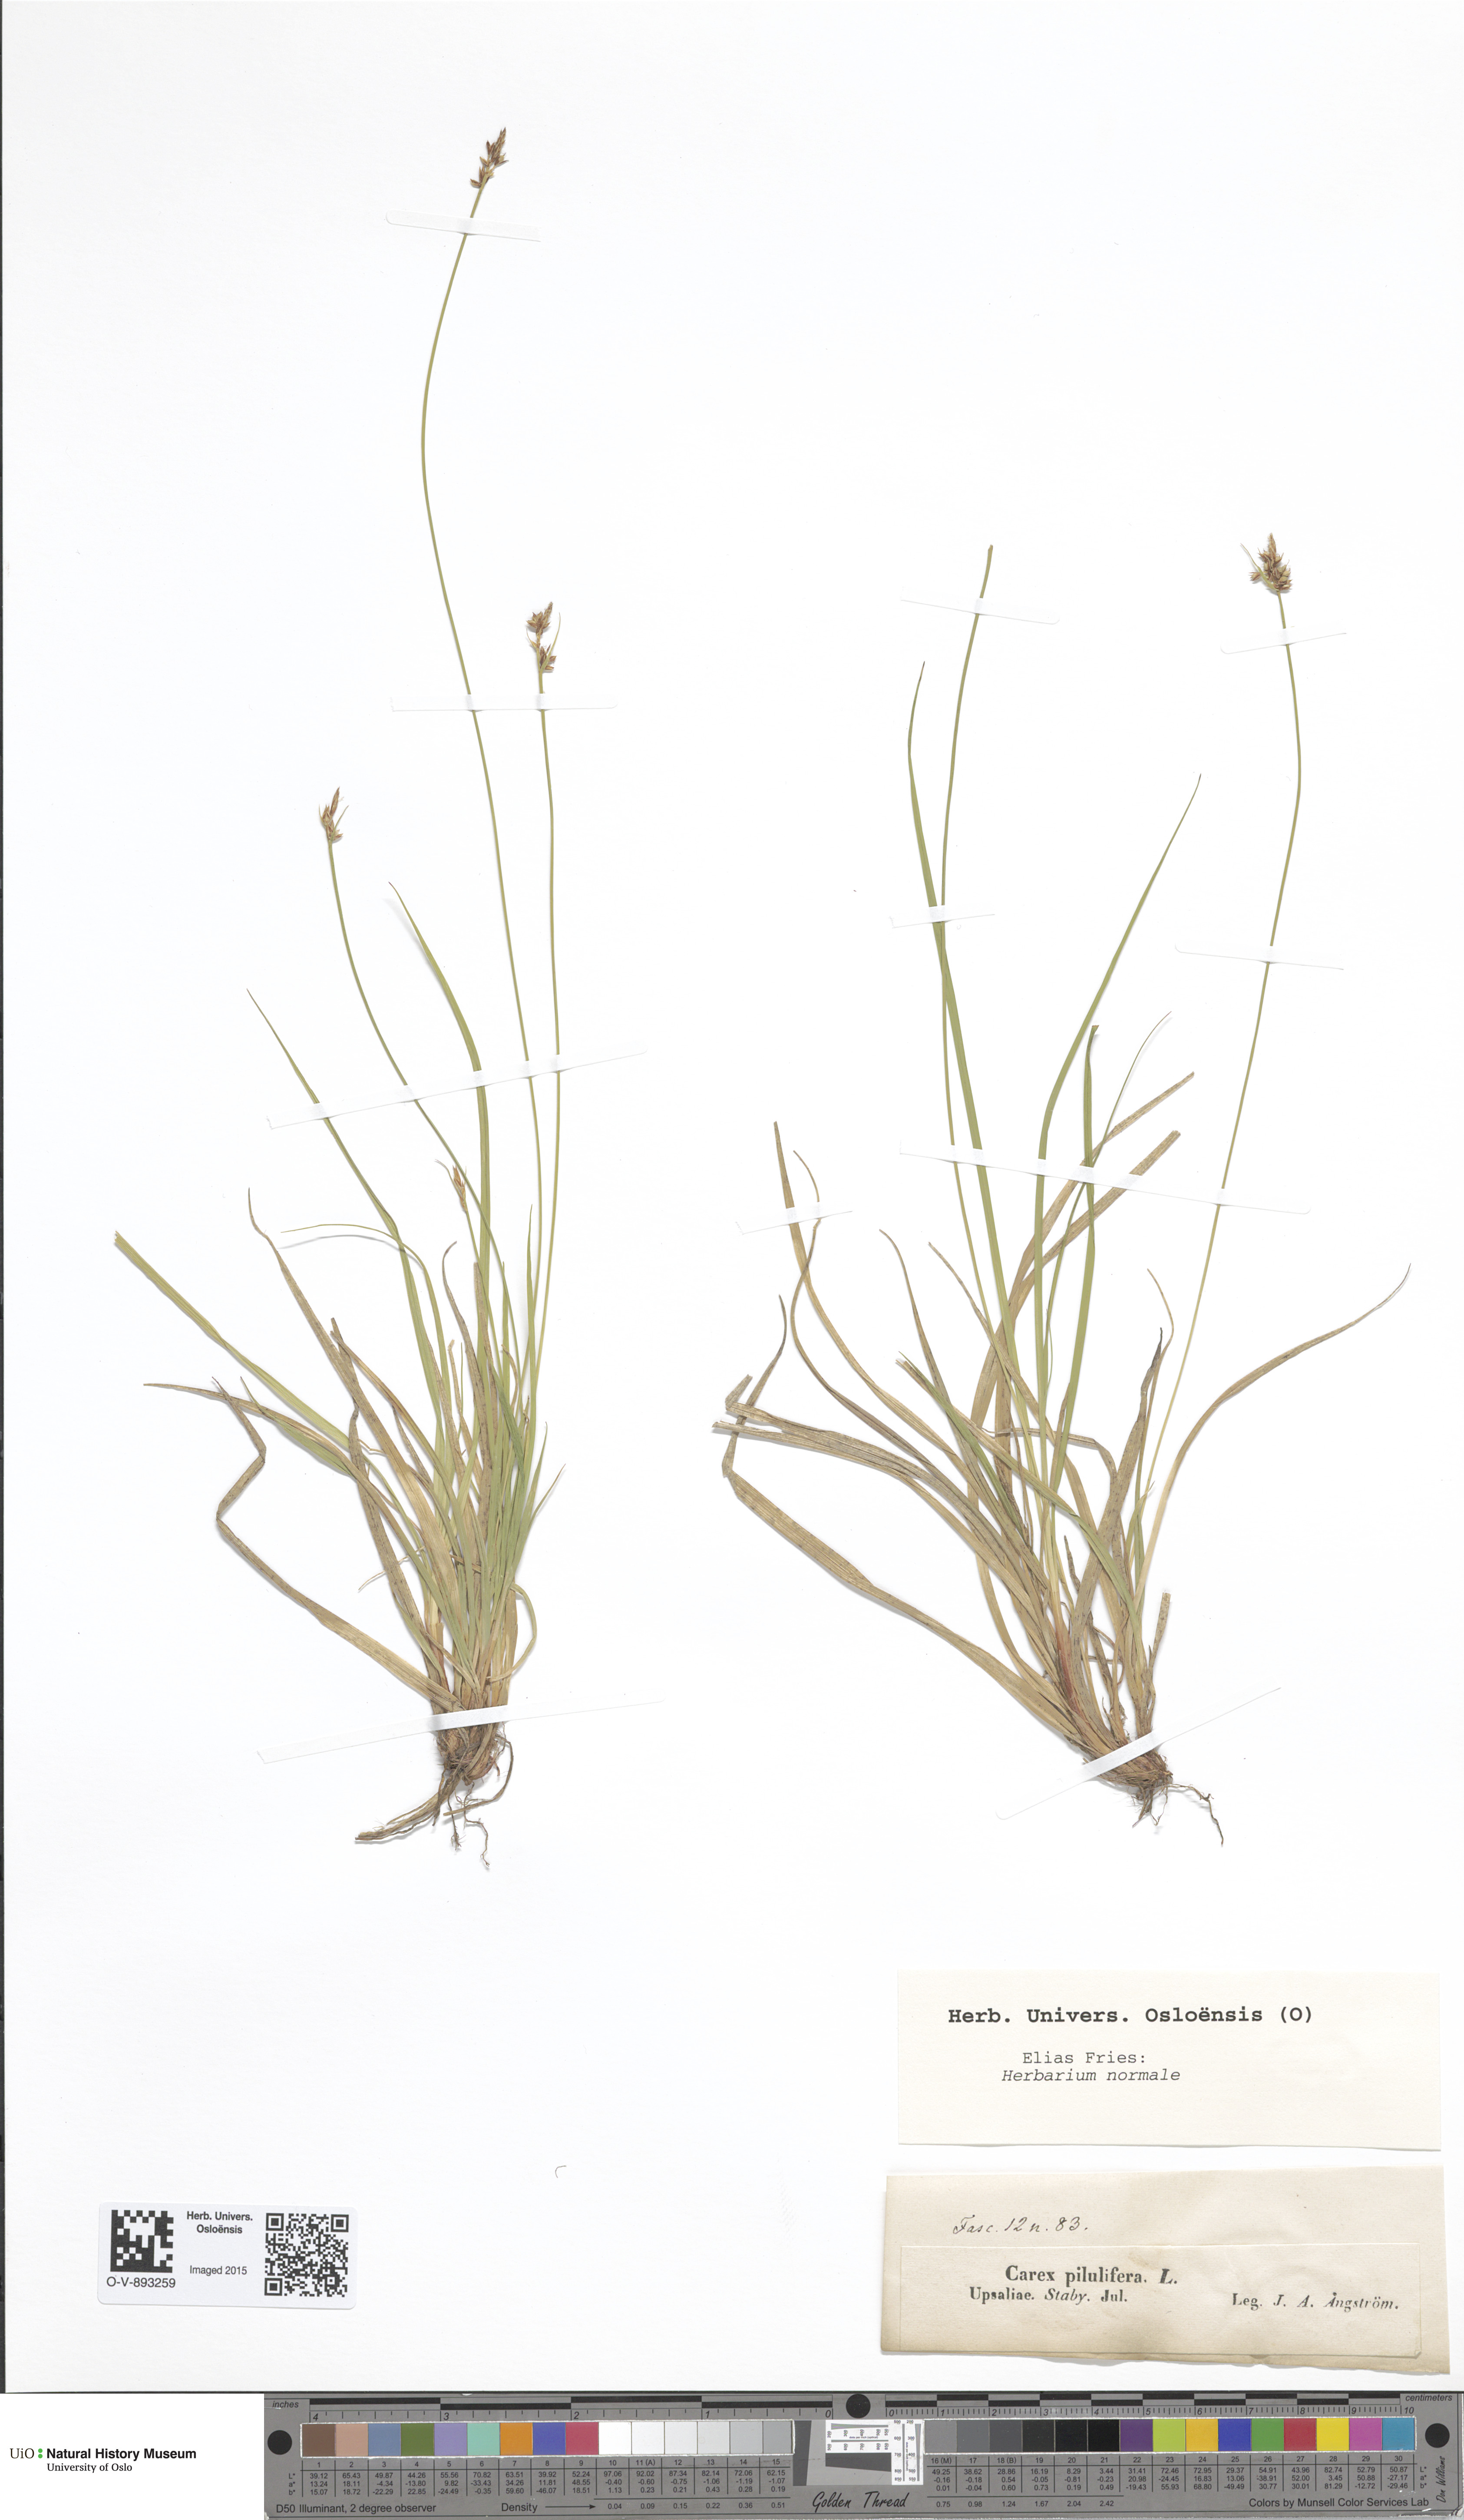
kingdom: Plantae
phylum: Tracheophyta
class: Liliopsida
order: Poales
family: Cyperaceae
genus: Carex
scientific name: Carex pilulifera
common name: Pill sedge
